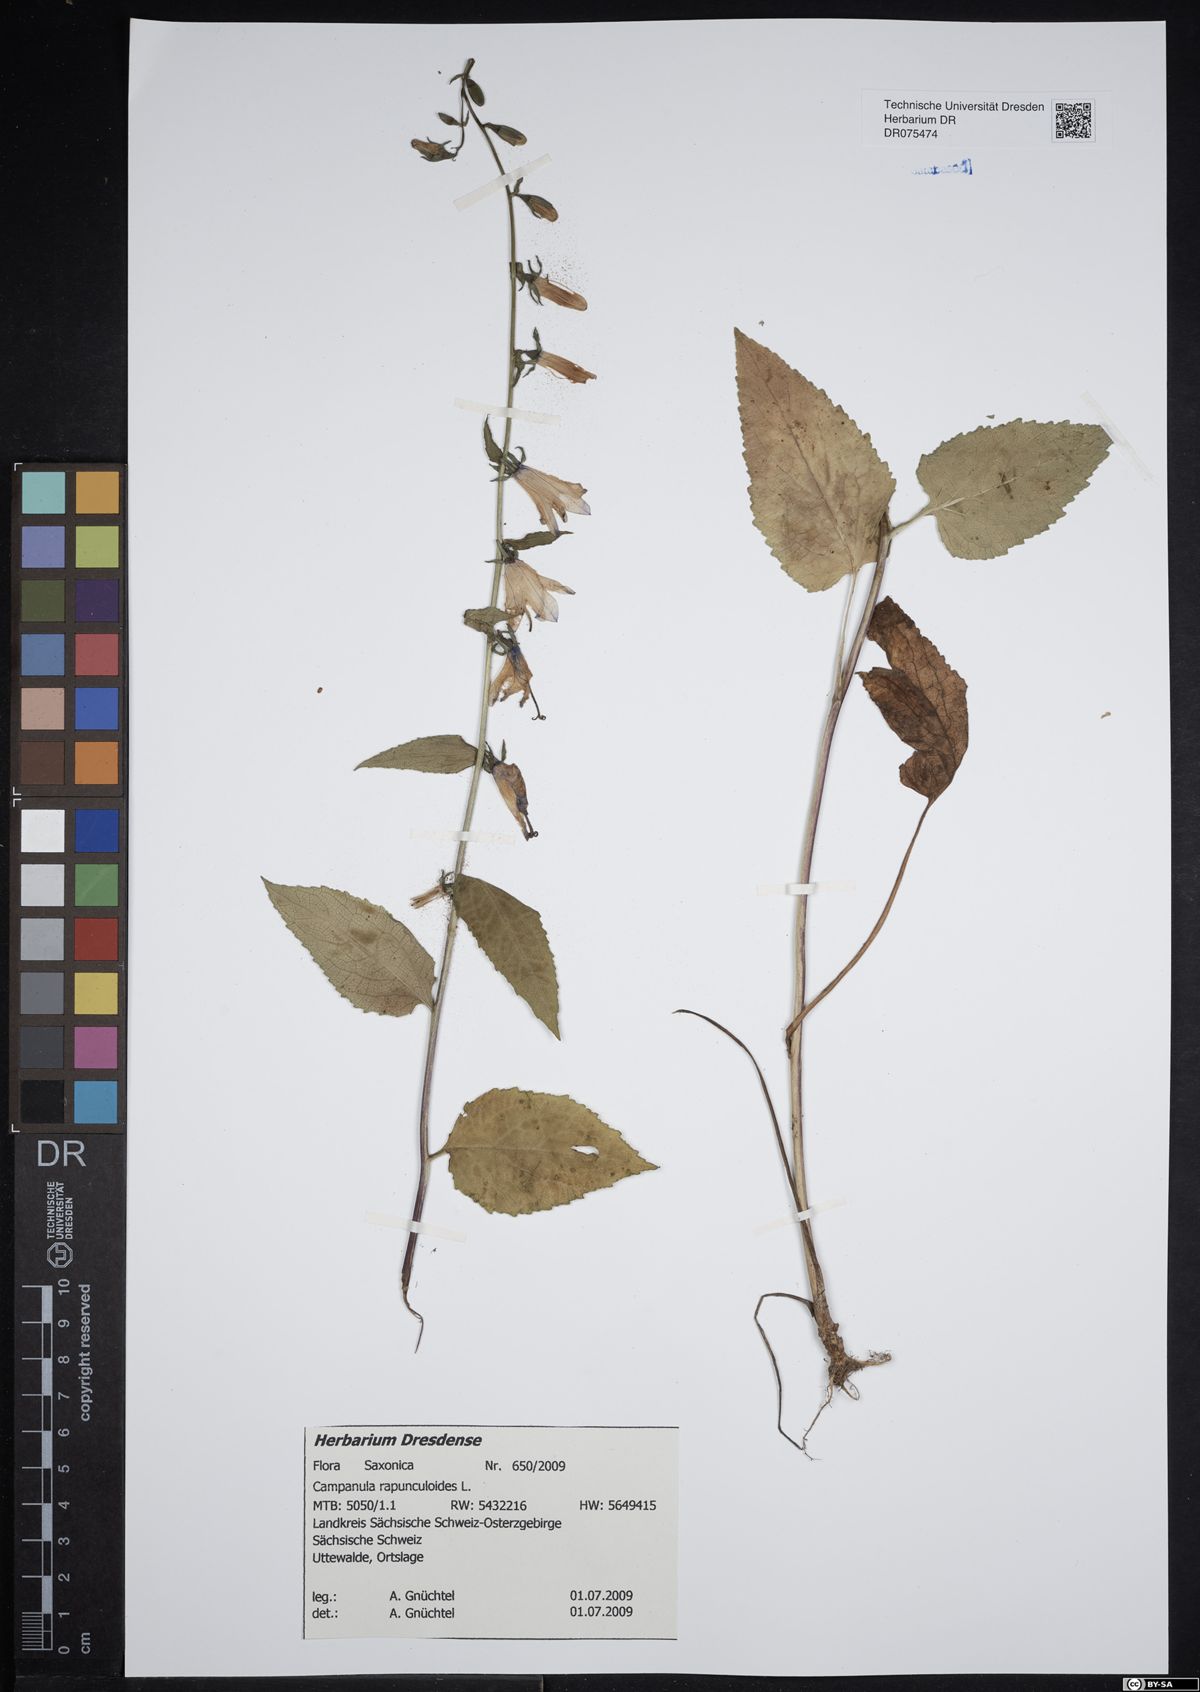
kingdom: Plantae
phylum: Tracheophyta
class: Magnoliopsida
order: Asterales
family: Campanulaceae
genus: Campanula
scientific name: Campanula rapunculoides
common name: Creeping bellflower
